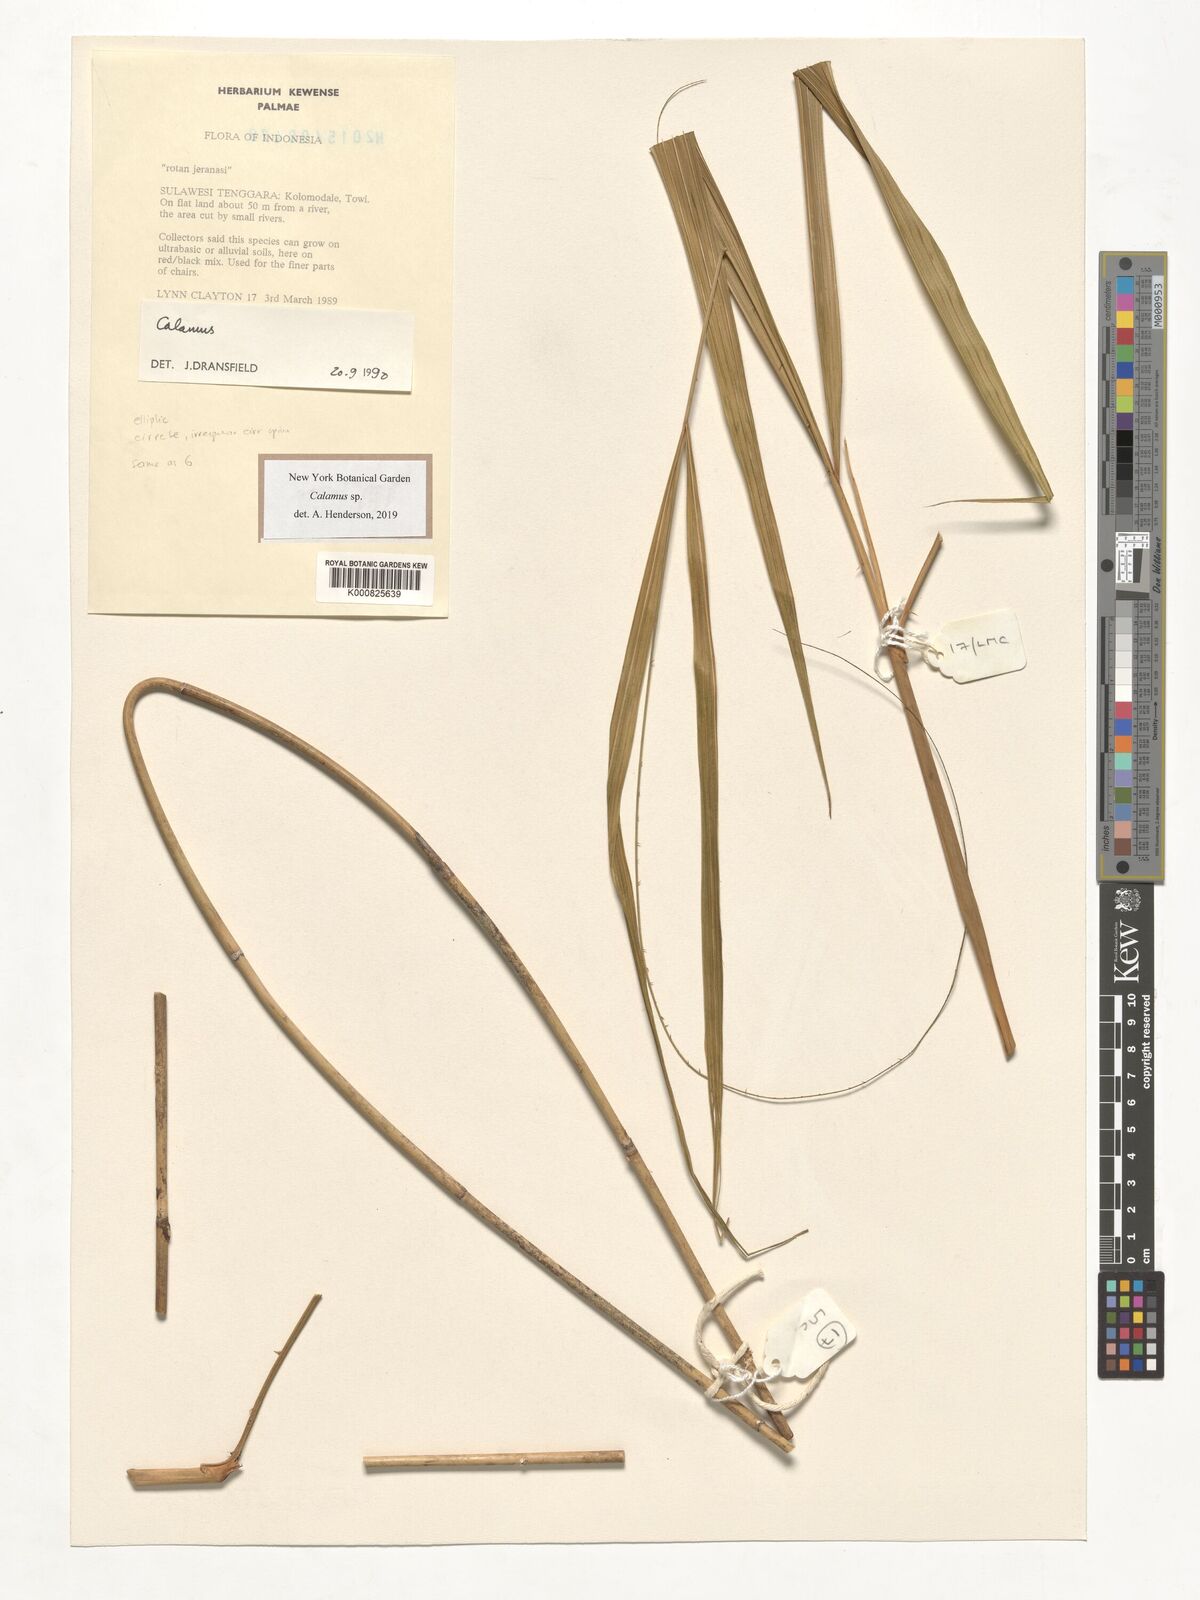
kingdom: Plantae
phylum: Tracheophyta
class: Liliopsida
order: Arecales
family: Arecaceae
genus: Calamus
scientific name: Calamus
